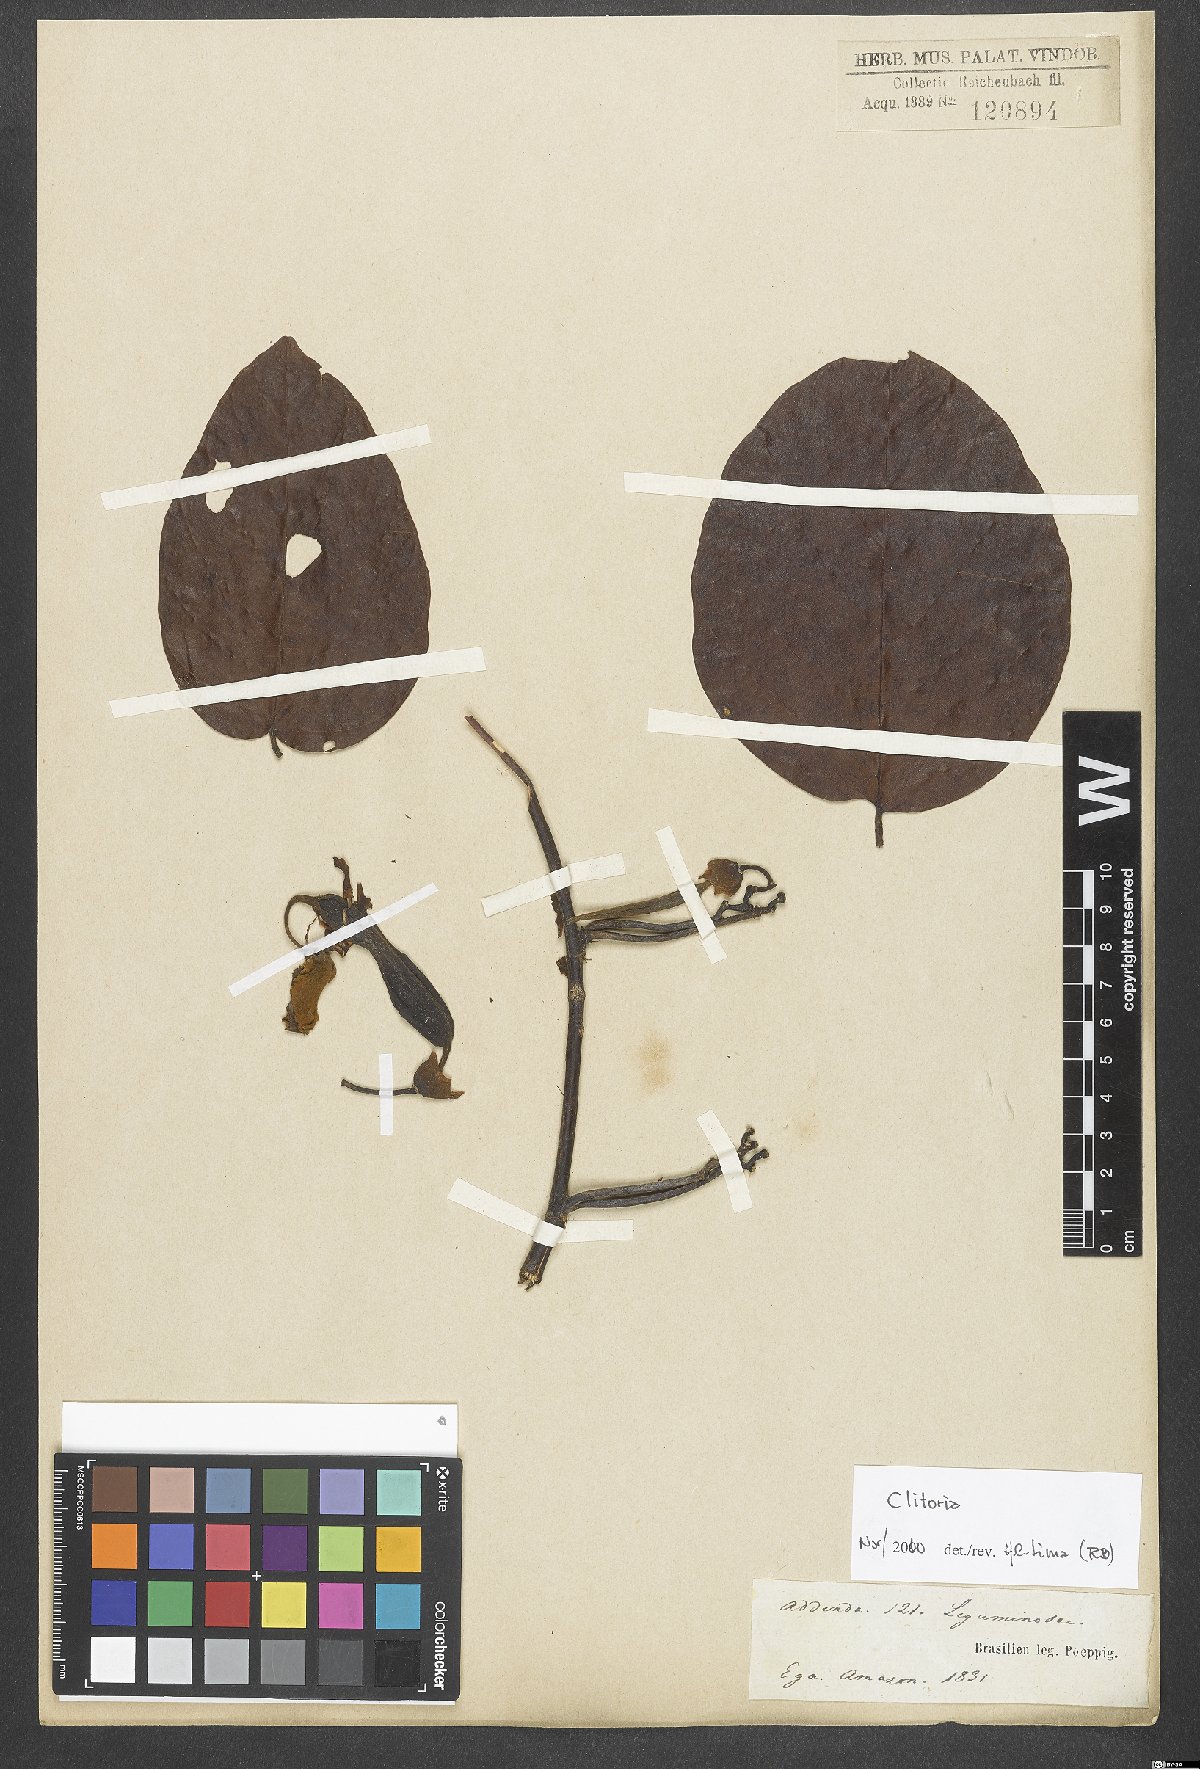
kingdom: Plantae
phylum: Tracheophyta
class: Magnoliopsida
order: Fabales
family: Fabaceae
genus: Clitoria
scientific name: Clitoria
